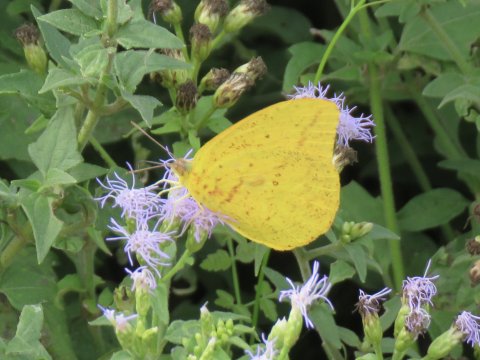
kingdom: Animalia
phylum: Arthropoda
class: Insecta
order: Lepidoptera
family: Pieridae
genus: Phoebis
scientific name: Phoebis agarithe
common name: Large Orange Sulphur
